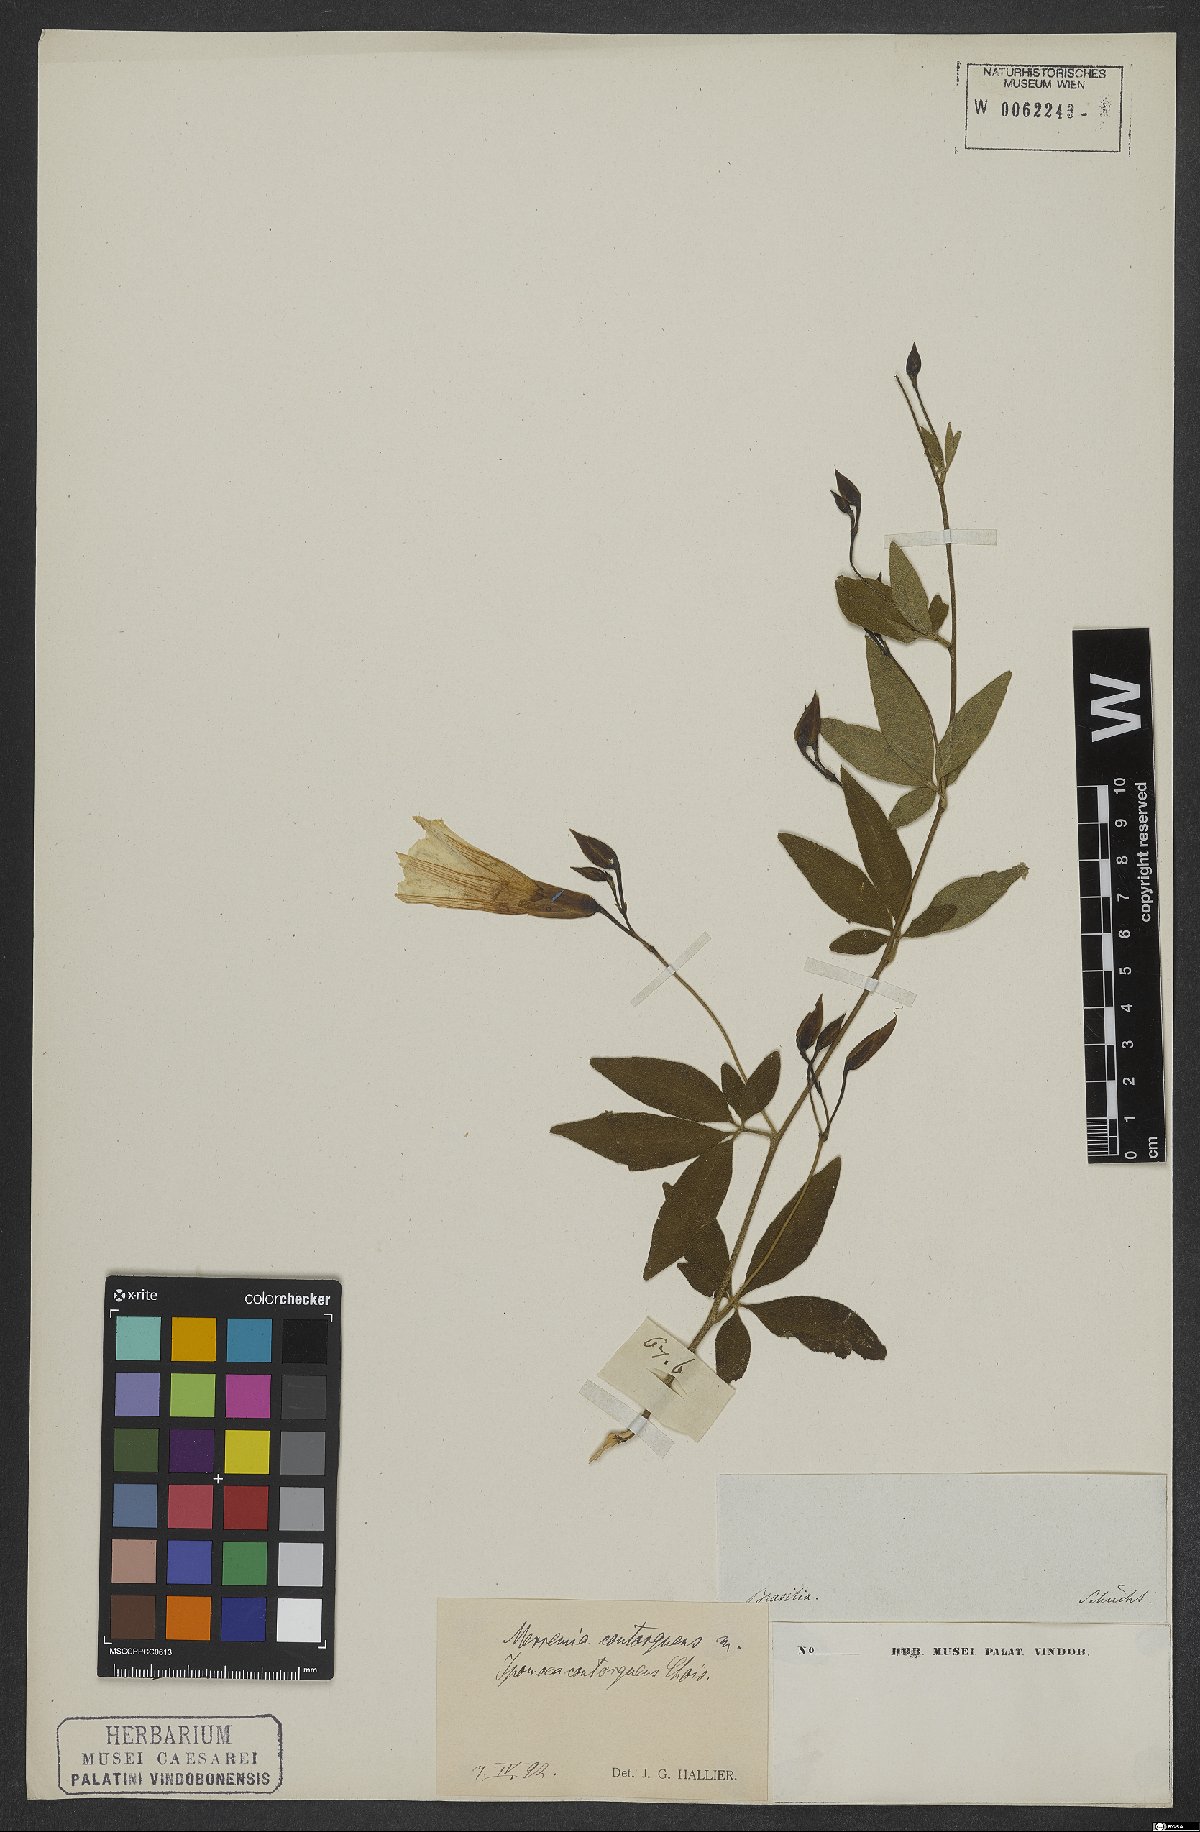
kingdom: Plantae
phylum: Tracheophyta
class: Magnoliopsida
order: Solanales
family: Convolvulaceae
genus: Distimake
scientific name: Distimake contorquens
